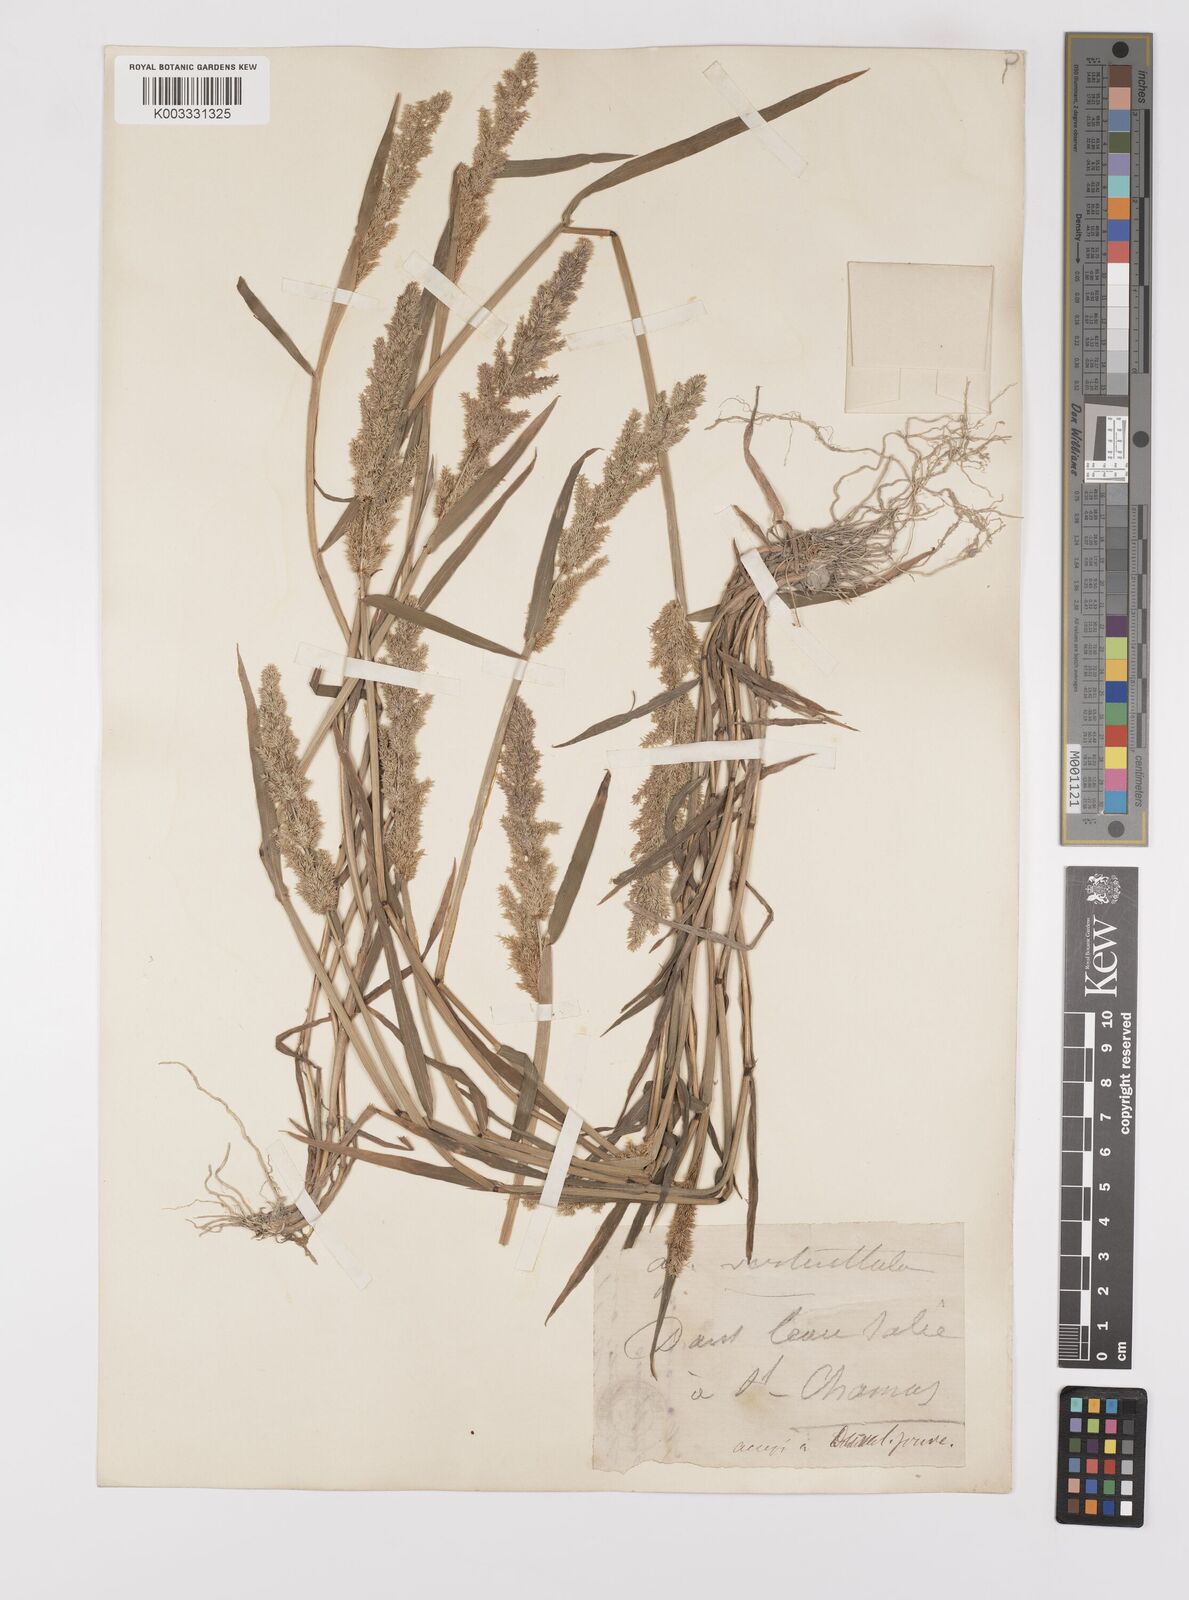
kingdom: Plantae
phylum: Tracheophyta
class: Liliopsida
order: Poales
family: Poaceae
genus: Polypogon
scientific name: Polypogon viridis
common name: Water bent
